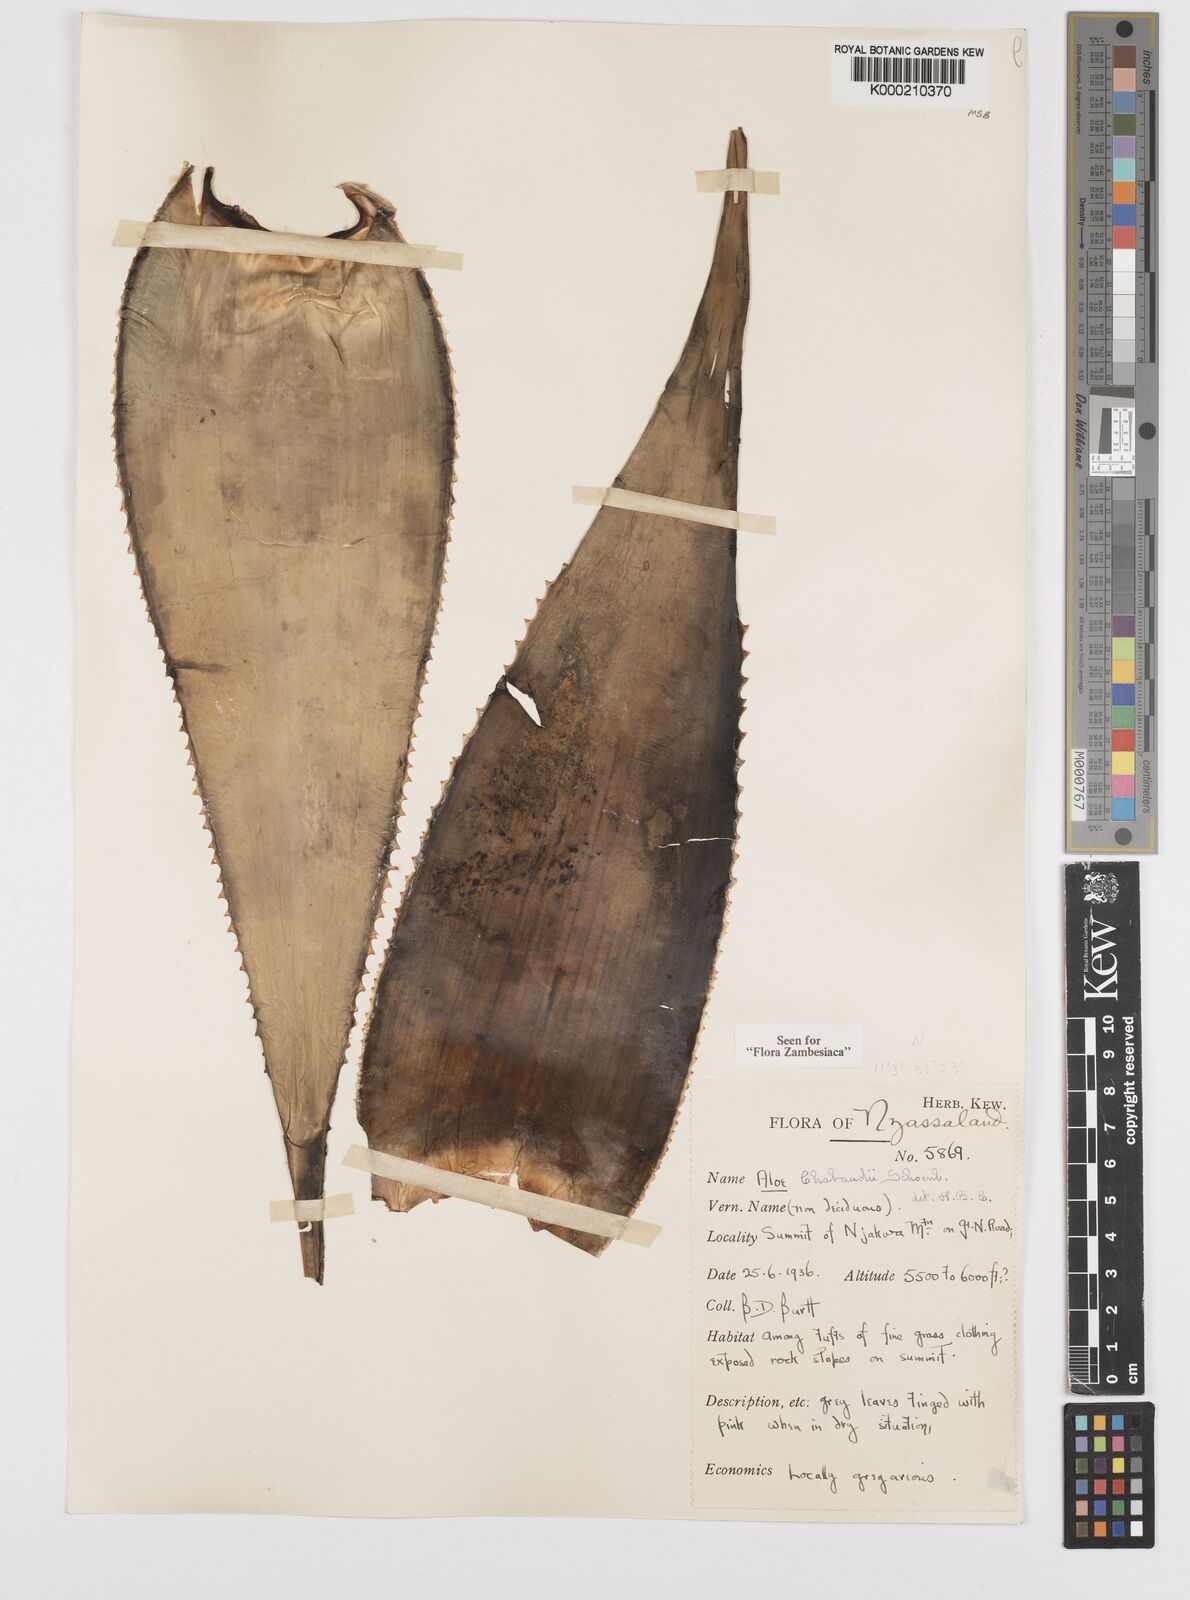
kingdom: Plantae
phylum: Tracheophyta
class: Liliopsida
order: Asparagales
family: Asphodelaceae
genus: Aloe
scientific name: Aloe chabaudii
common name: Chabaud's aloe
